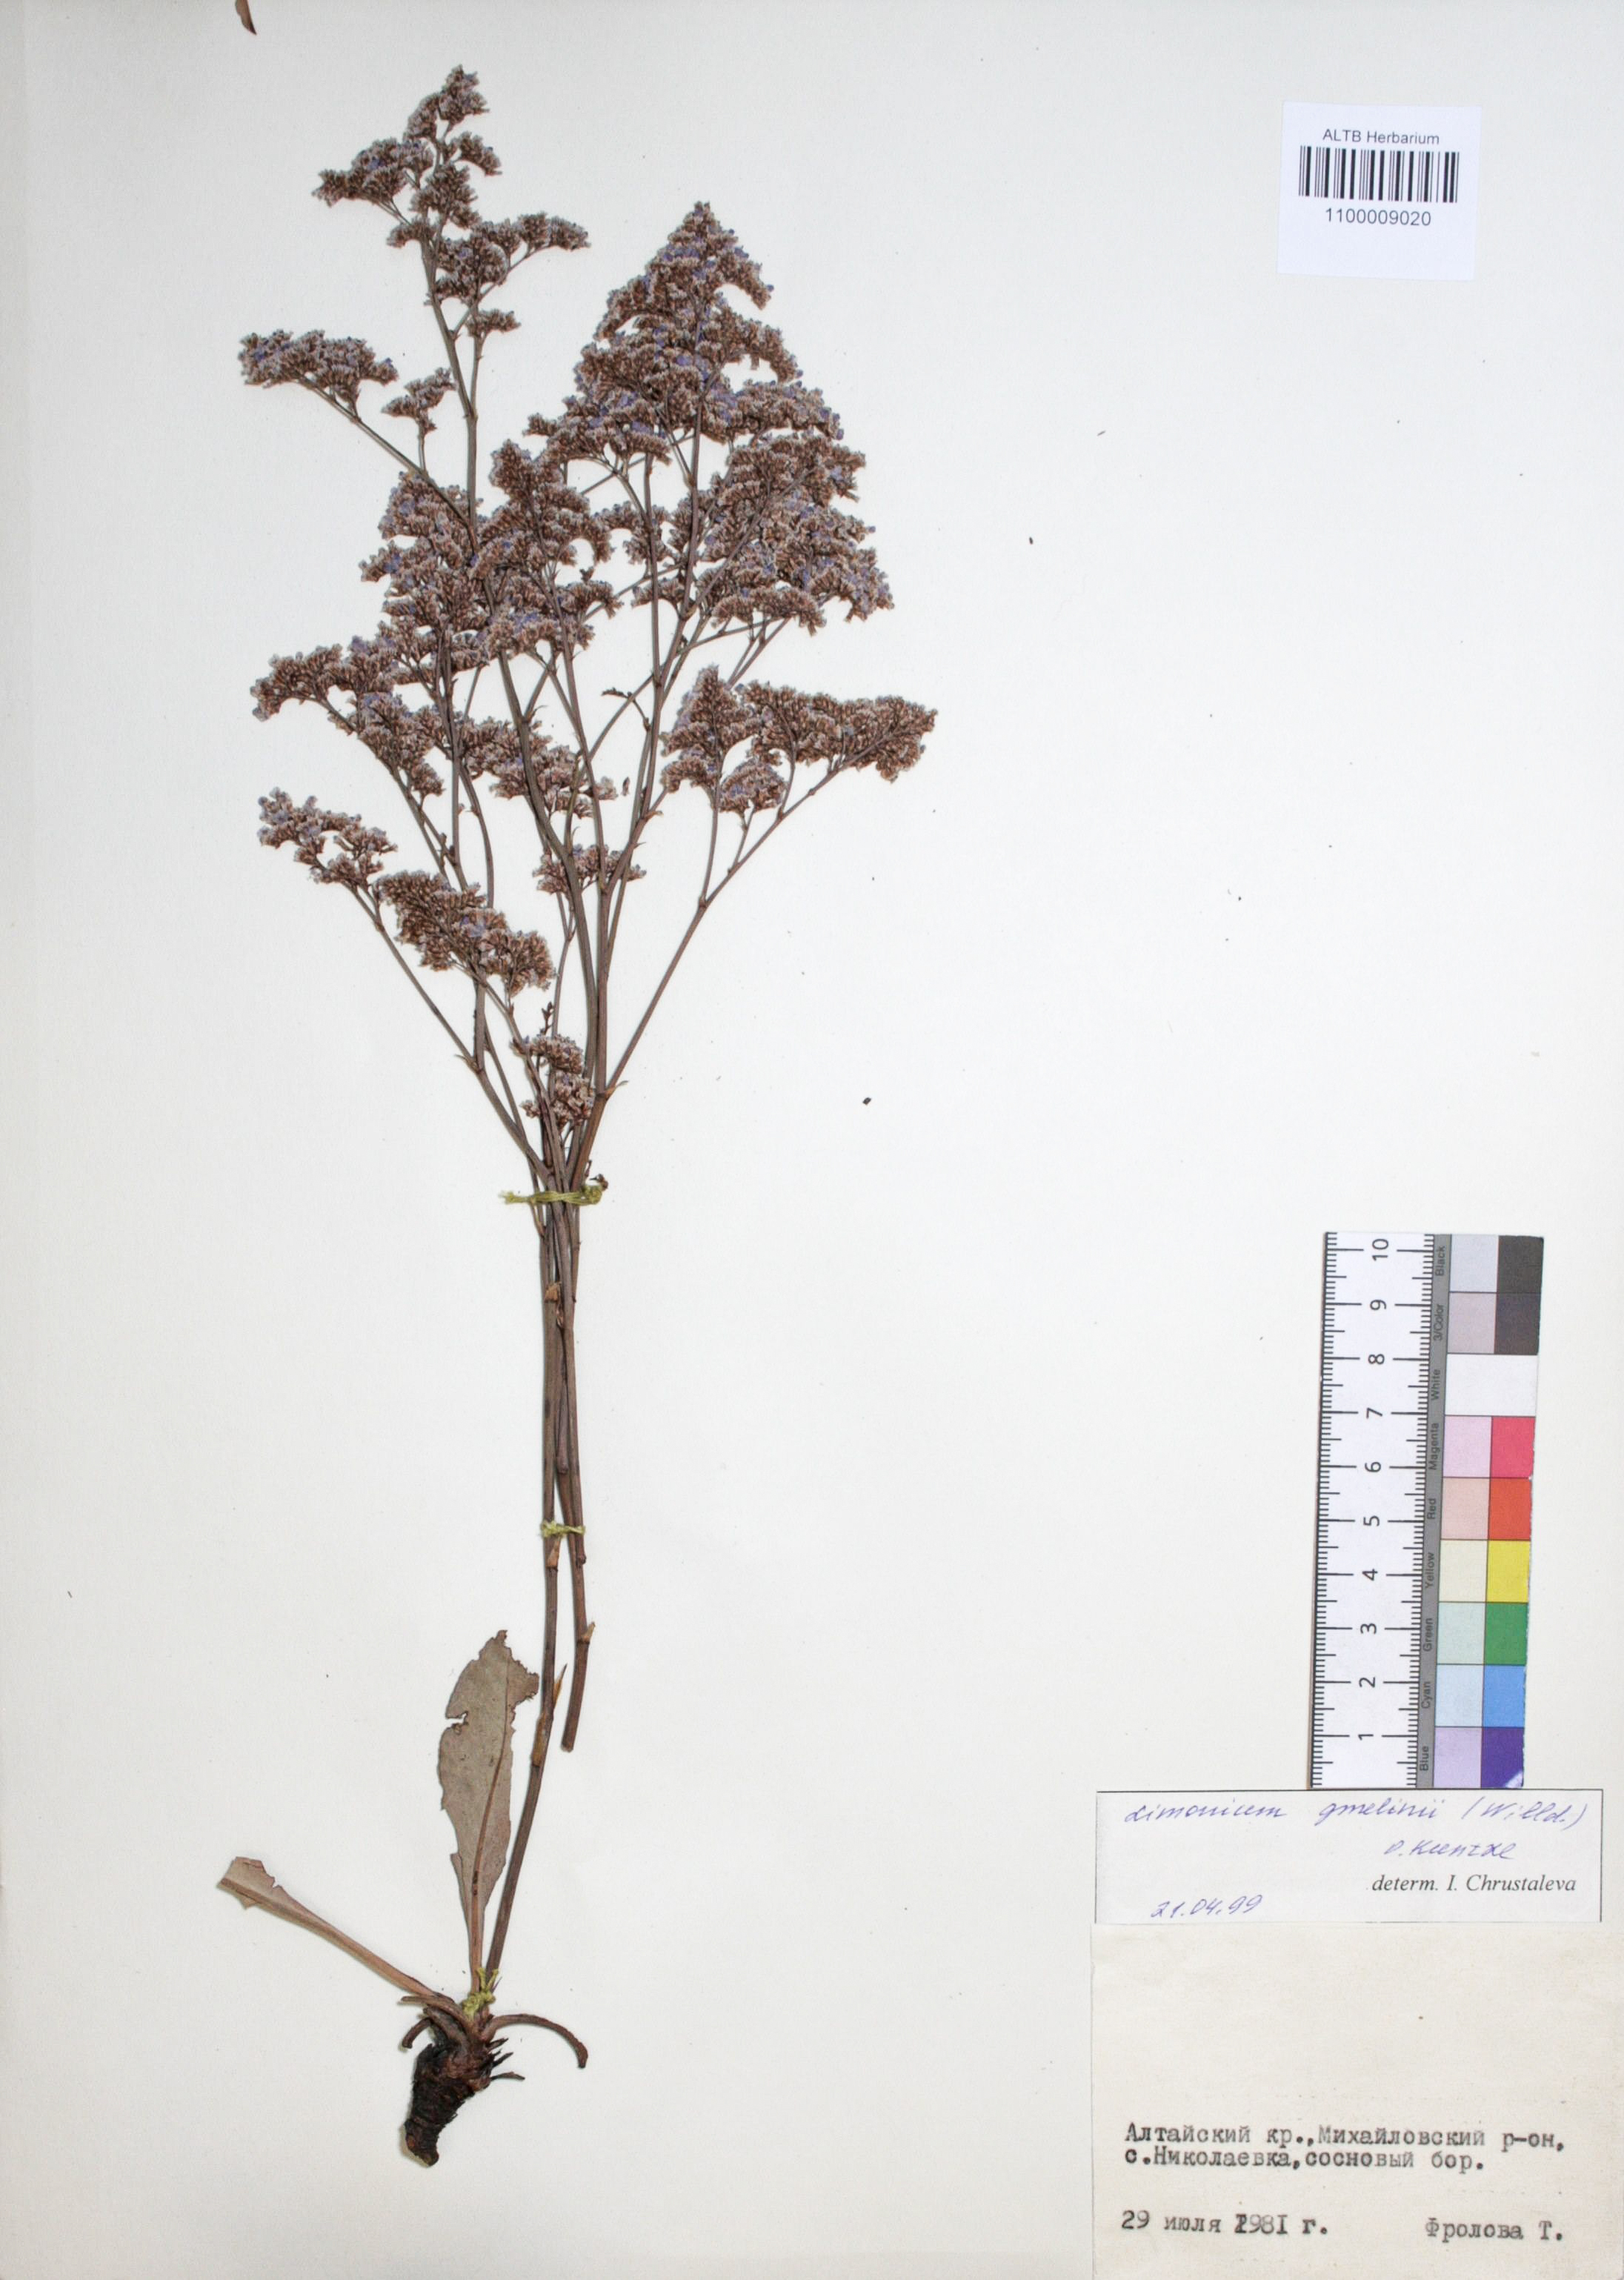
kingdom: Plantae
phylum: Tracheophyta
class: Magnoliopsida
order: Caryophyllales
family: Plumbaginaceae
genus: Limonium
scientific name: Limonium gmelini
